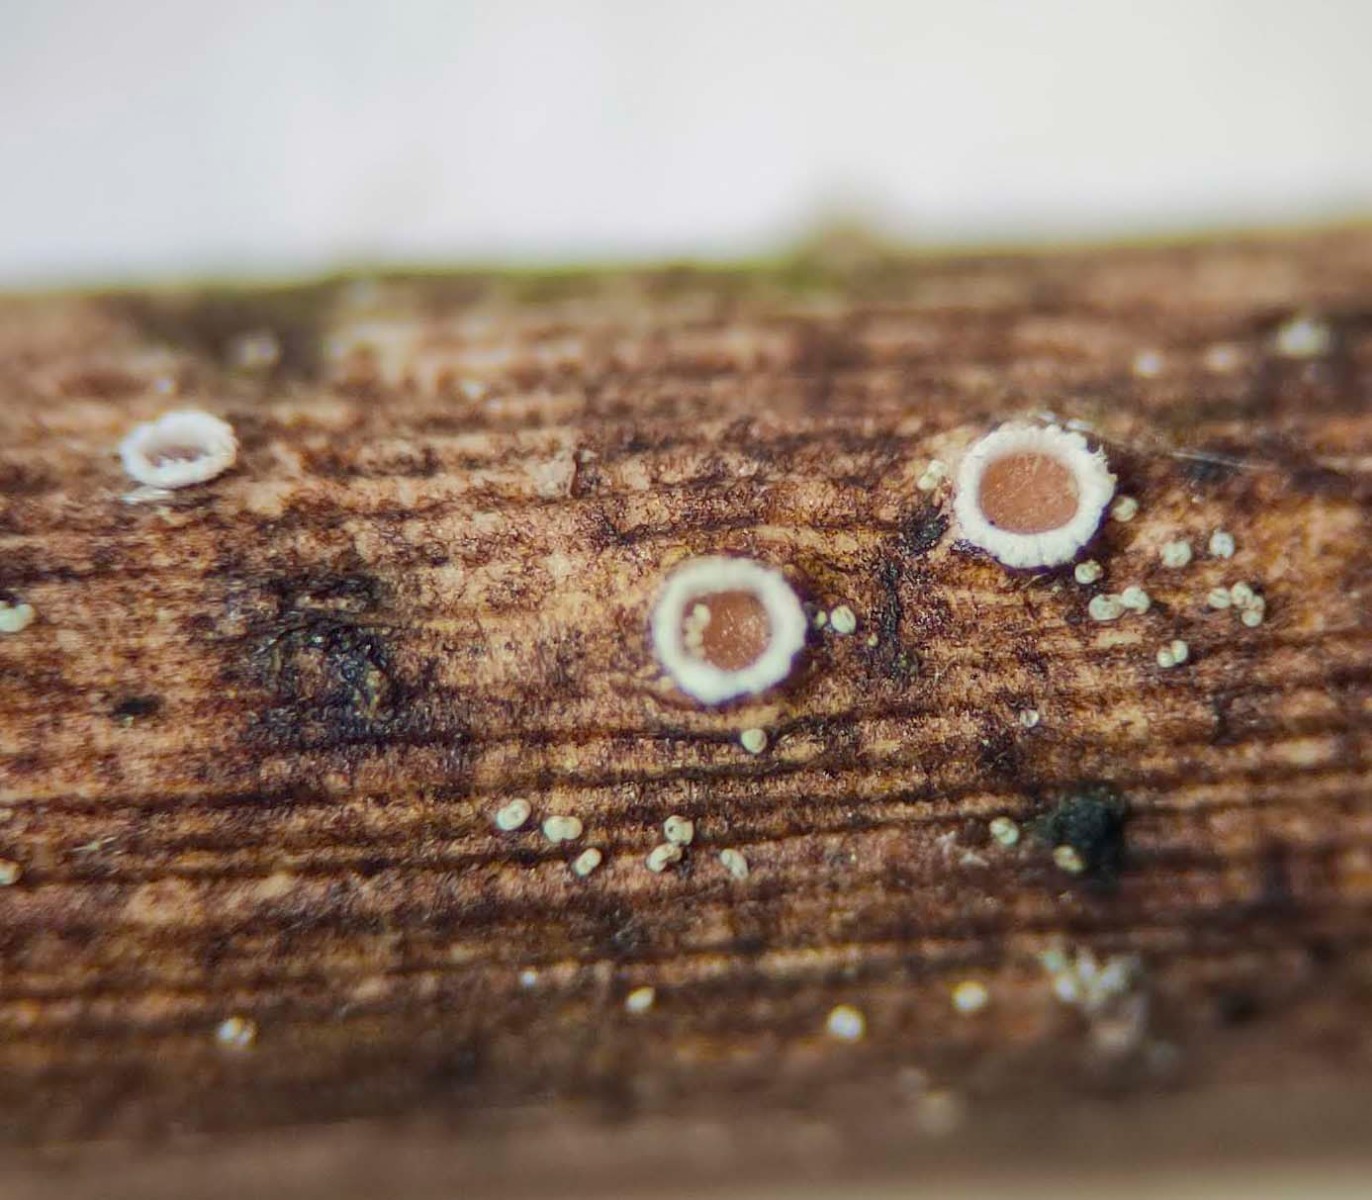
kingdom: Fungi
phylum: Ascomycota
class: Lecanoromycetes
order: Ostropales
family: Stictidaceae
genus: Stictis
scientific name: Stictis radiata
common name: tandet barkhul
